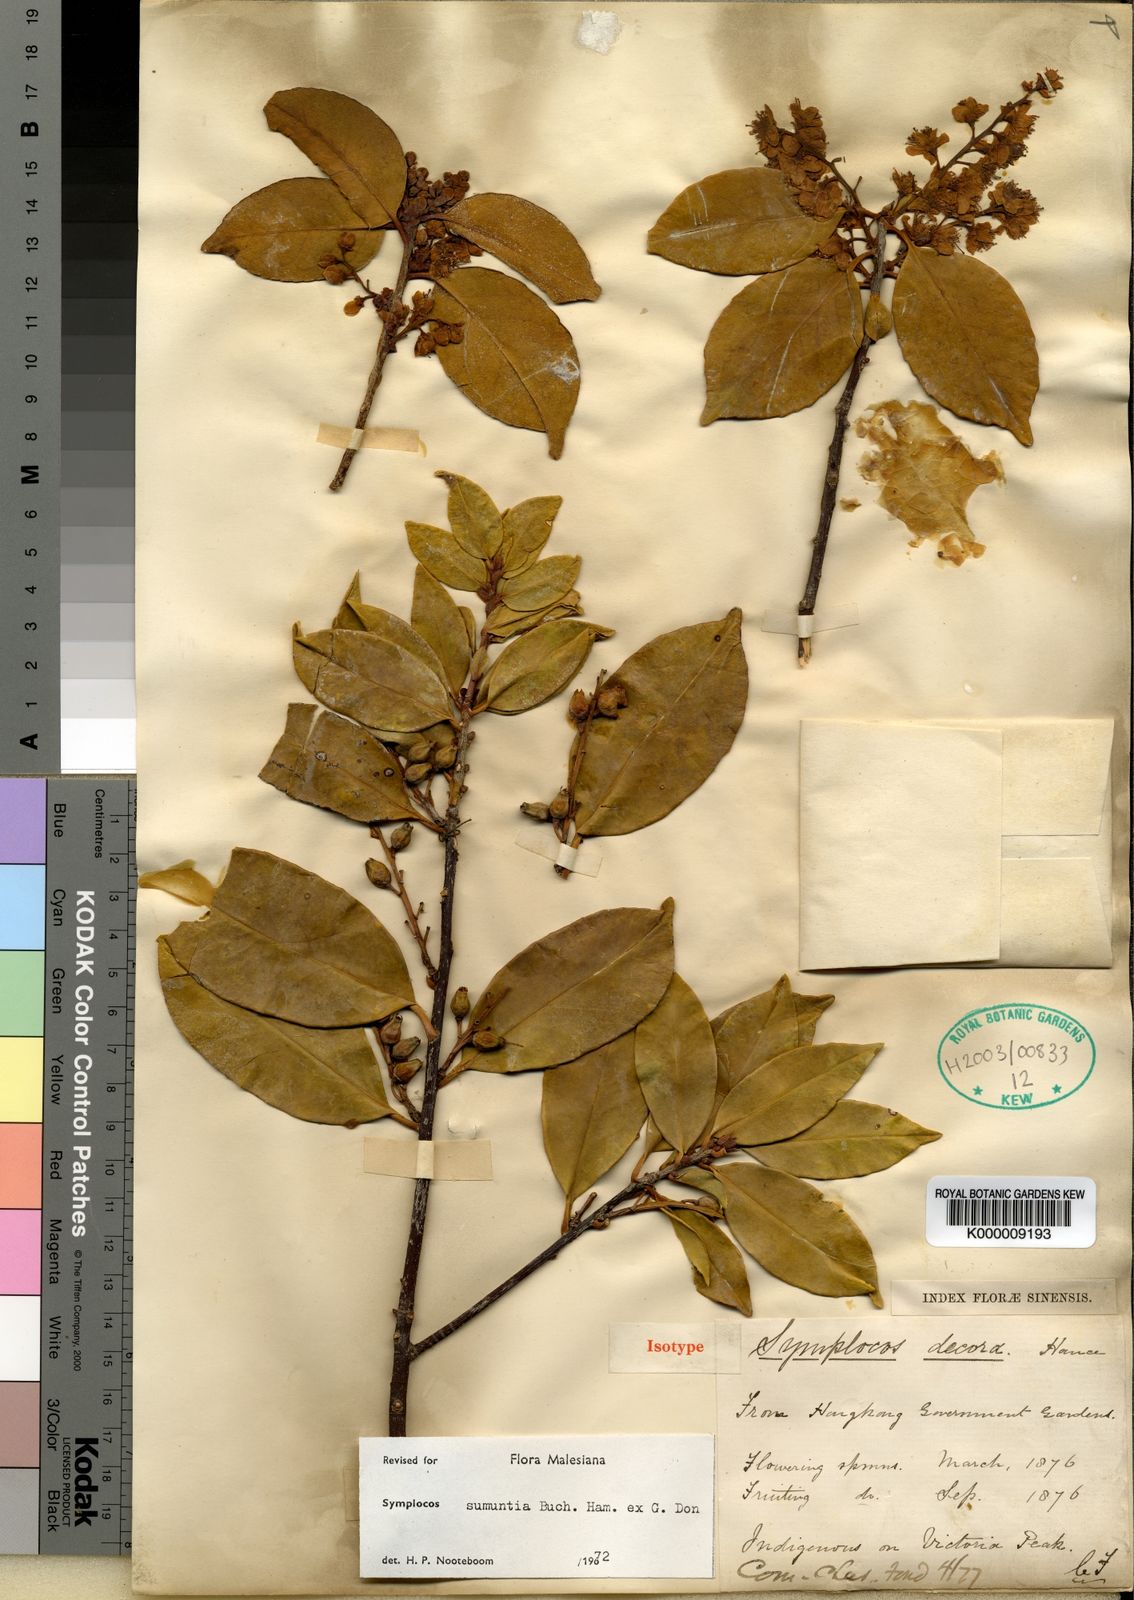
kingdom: Plantae
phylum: Tracheophyta
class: Magnoliopsida
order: Ericales
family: Symplocaceae
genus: Symplocos
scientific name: Symplocos sumuntia
